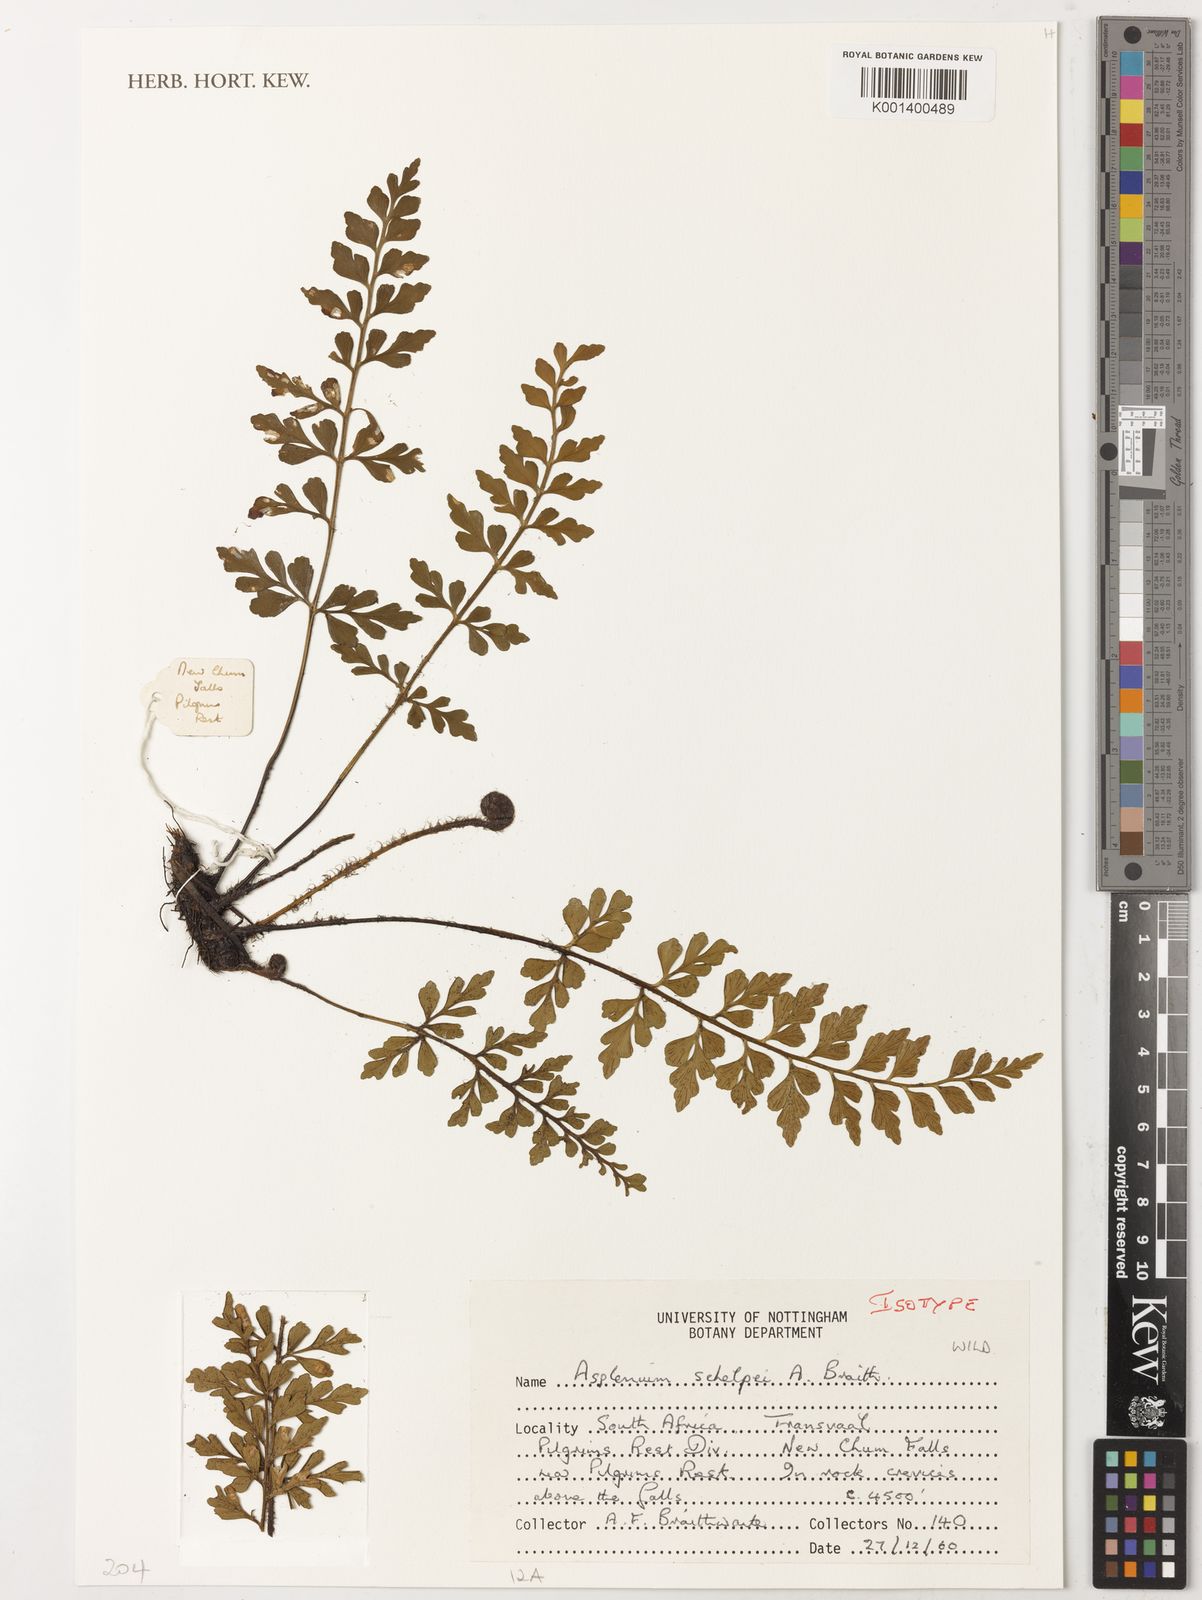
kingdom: Plantae
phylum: Tracheophyta
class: Polypodiopsida
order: Polypodiales
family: Aspleniaceae
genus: Asplenium
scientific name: Asplenium schelpei
